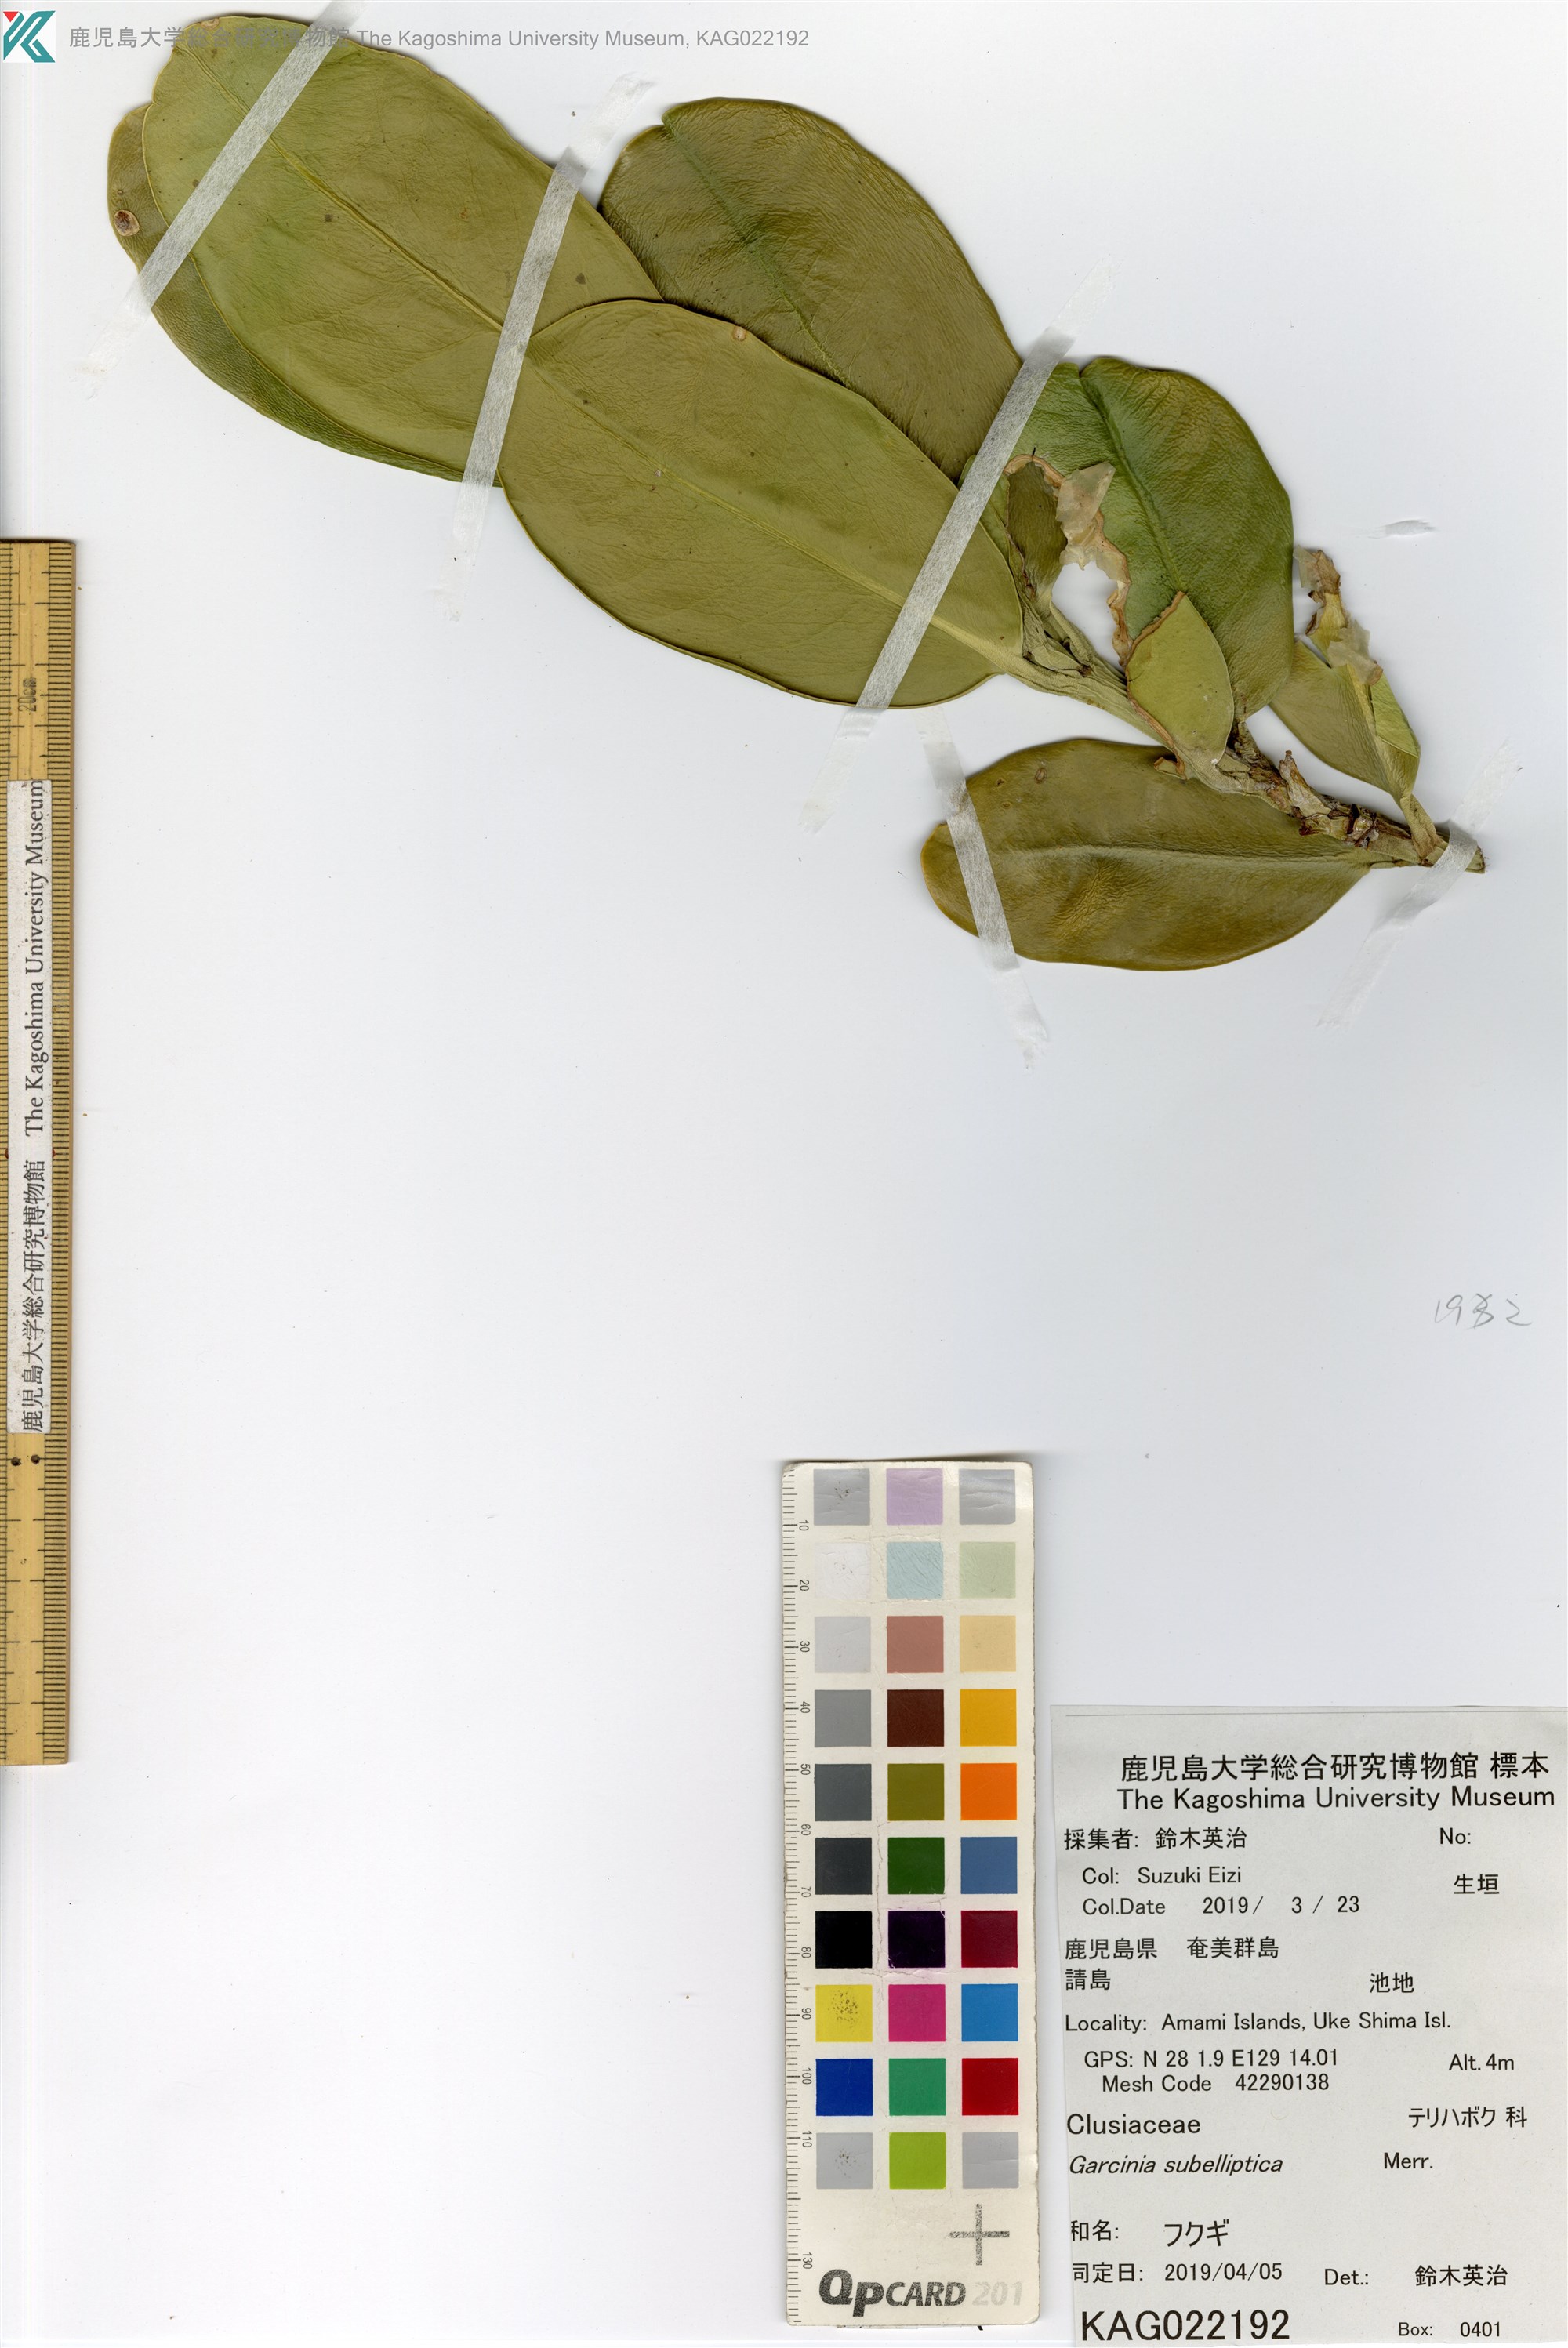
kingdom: Plantae
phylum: Tracheophyta
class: Magnoliopsida
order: Malpighiales
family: Clusiaceae
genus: Garcinia
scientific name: Garcinia subelliptica
